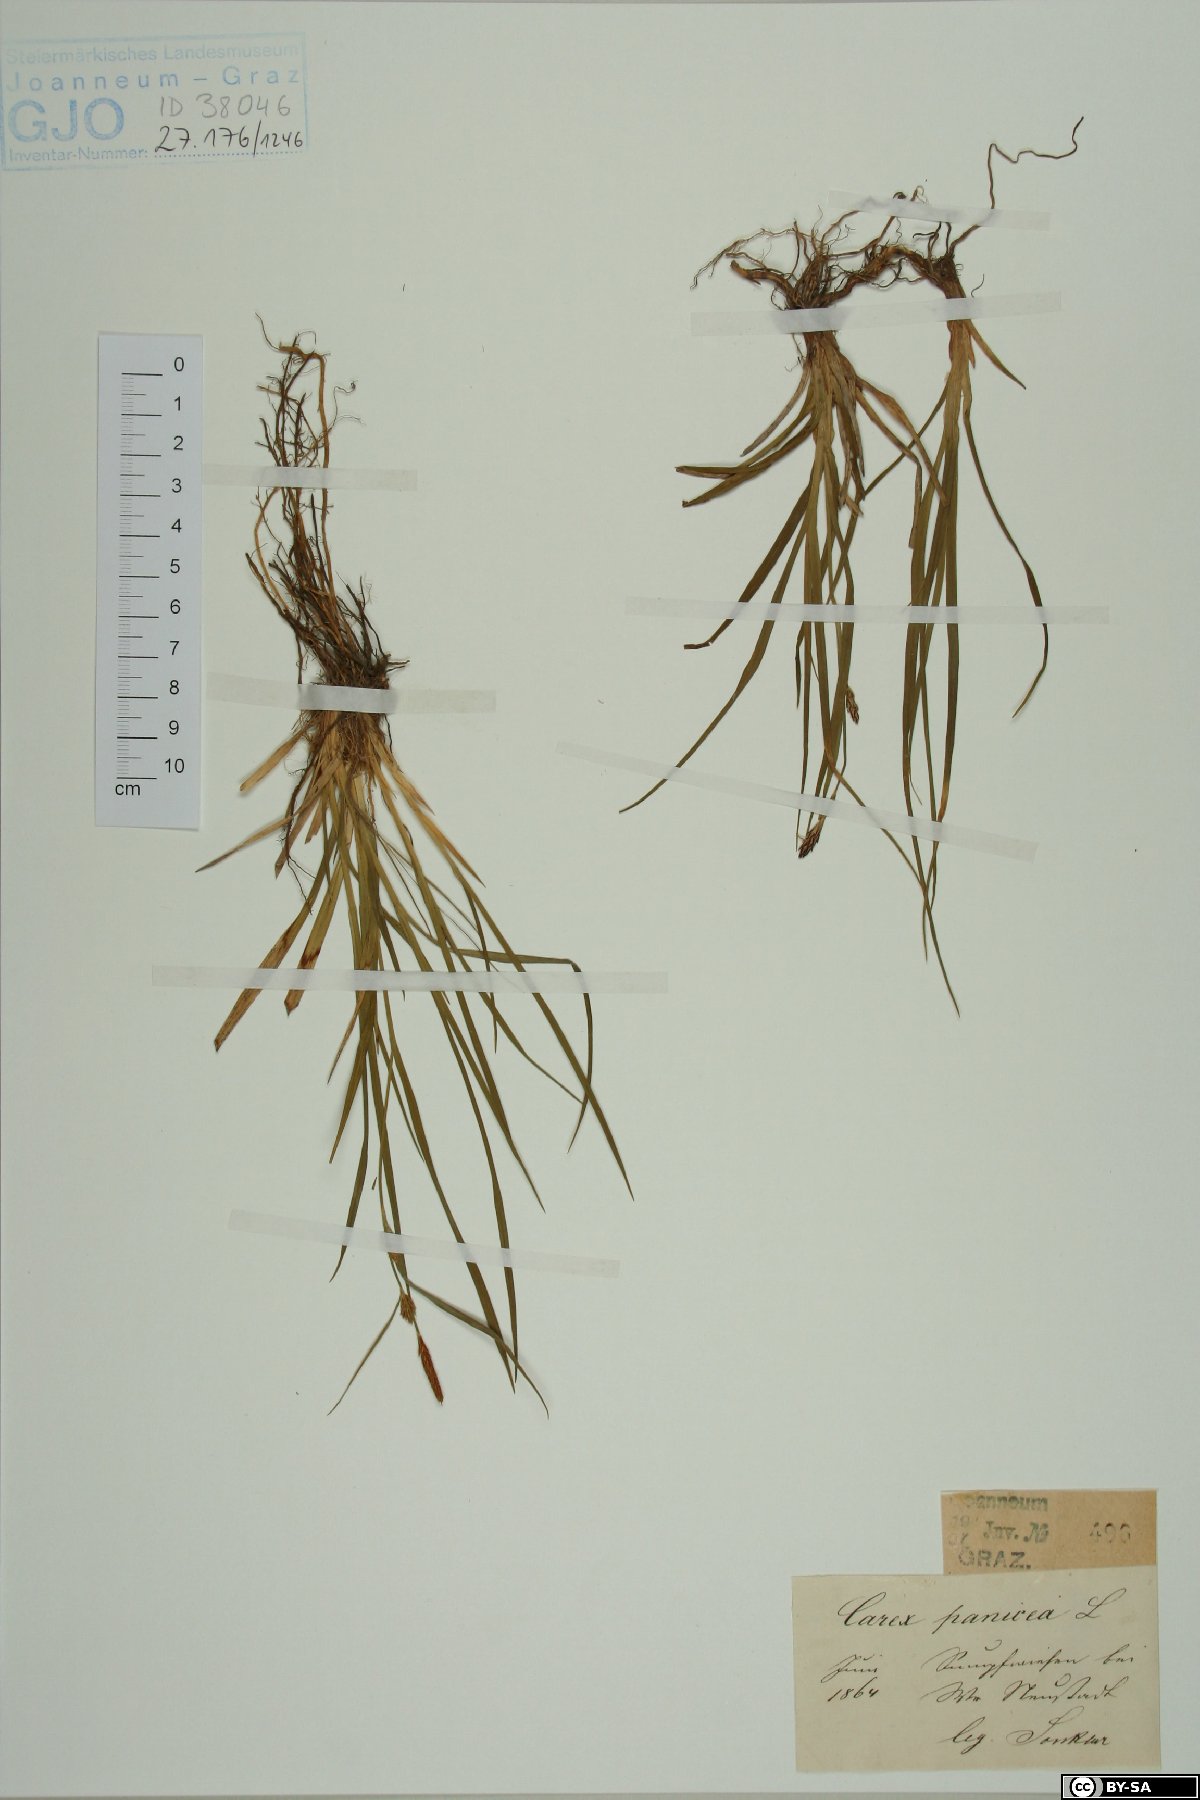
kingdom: Plantae
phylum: Tracheophyta
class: Liliopsida
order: Poales
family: Cyperaceae
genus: Carex
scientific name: Carex panicea
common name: Carnation sedge
